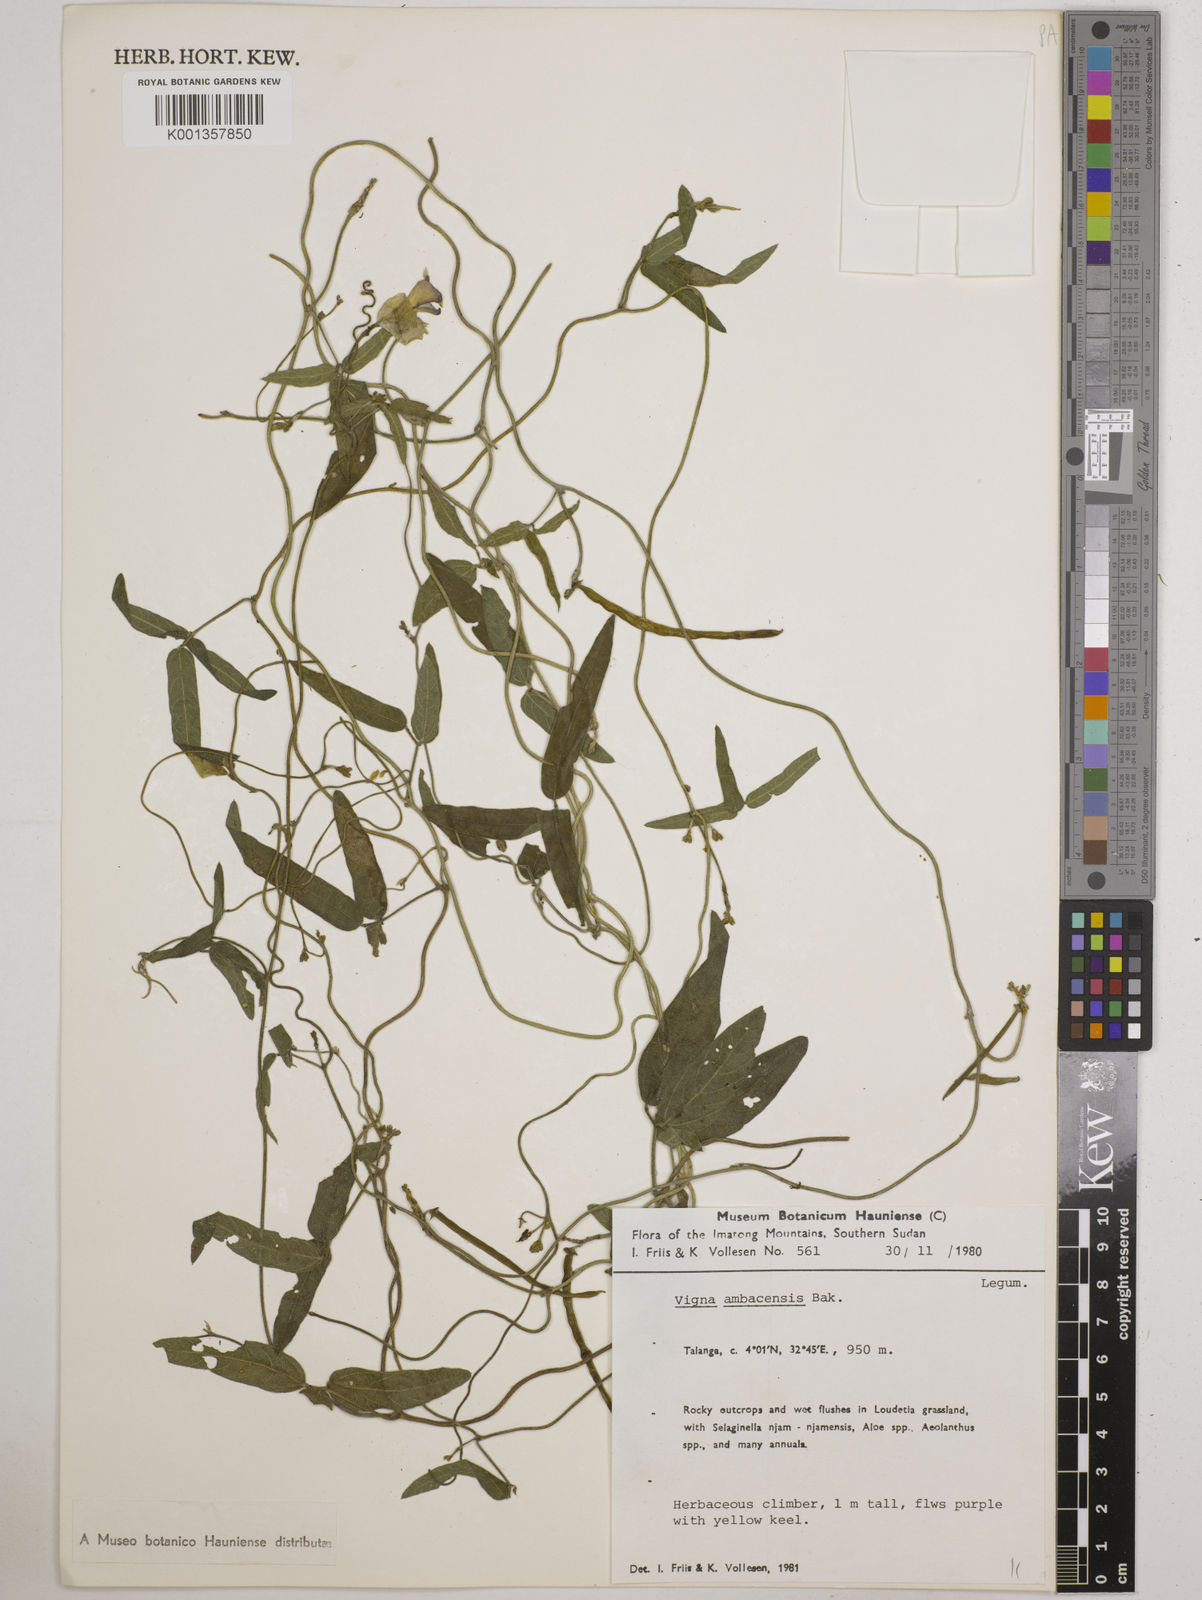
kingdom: Plantae
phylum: Tracheophyta
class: Magnoliopsida
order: Fabales
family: Fabaceae
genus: Vigna
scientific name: Vigna ambacensis
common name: Tsarkiyan zomo
